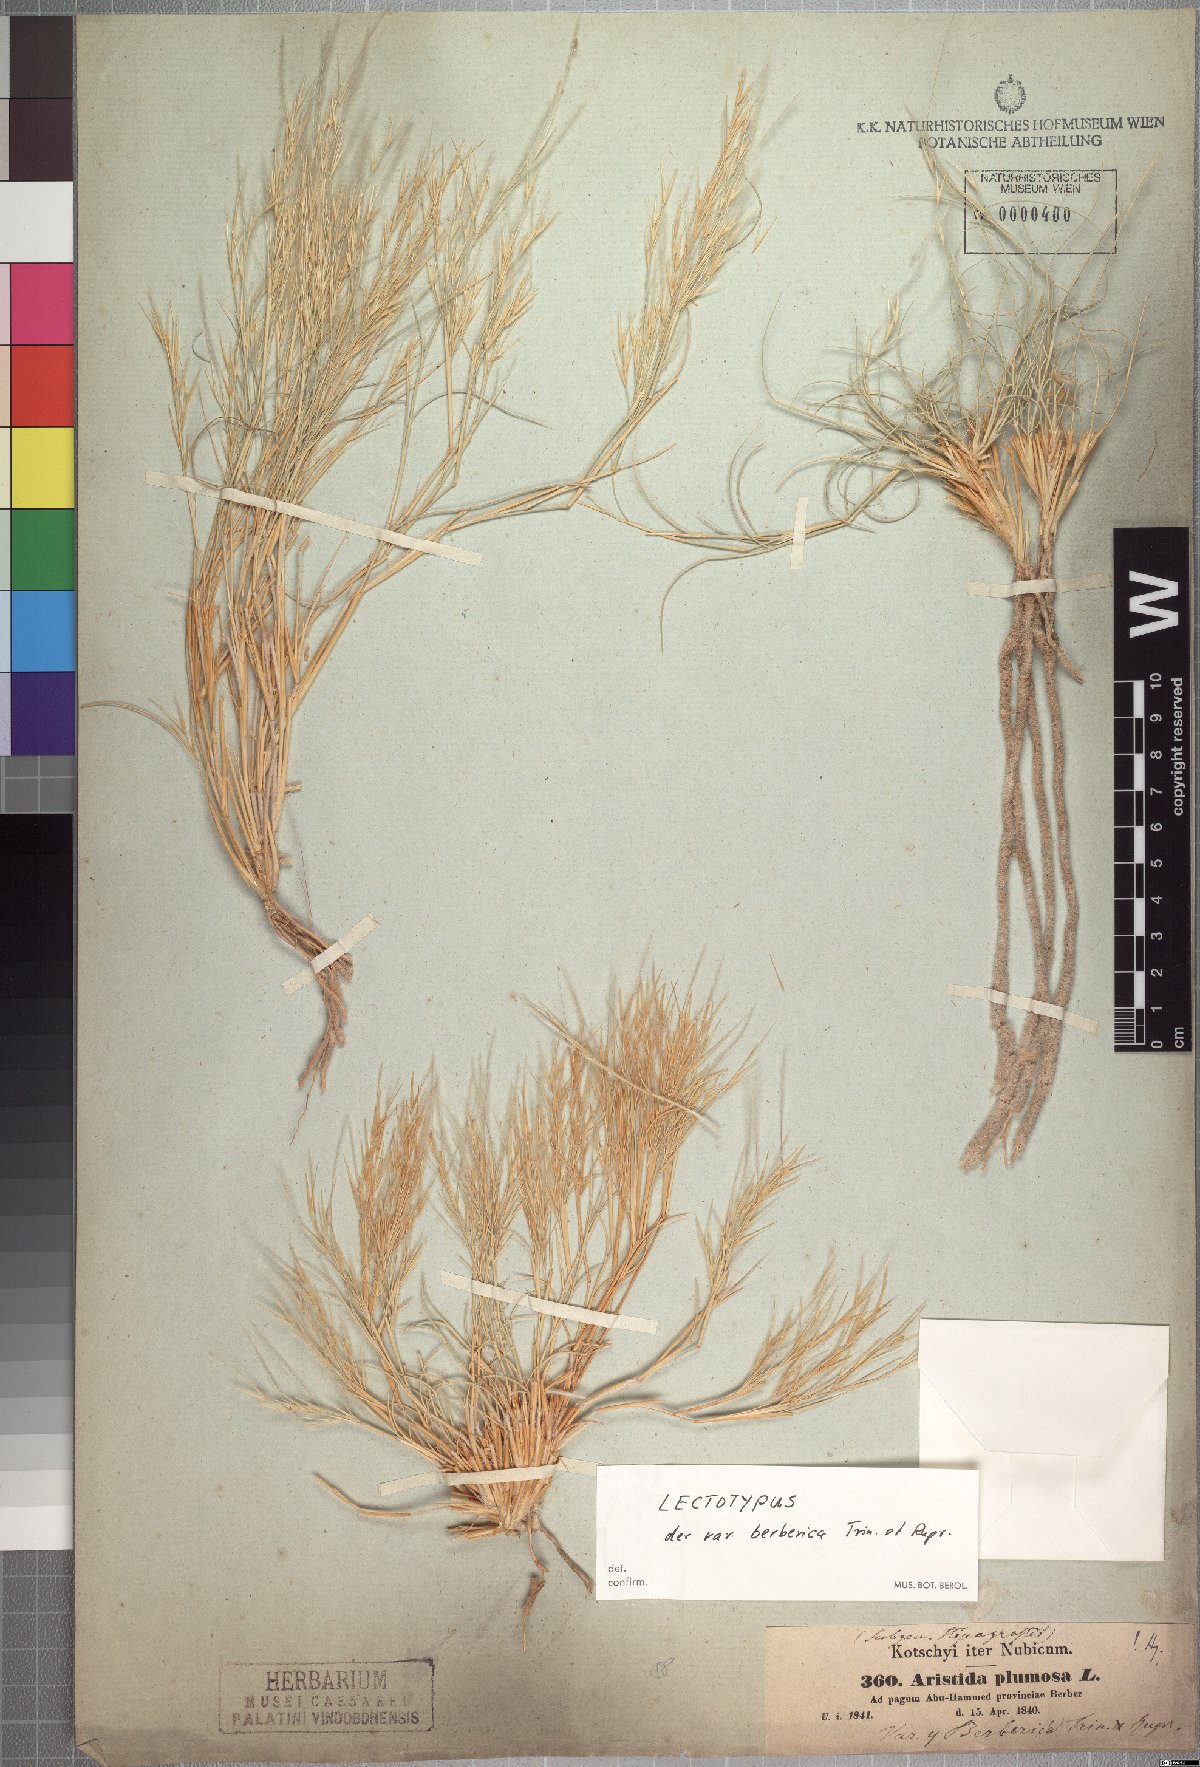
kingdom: Plantae
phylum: Tracheophyta
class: Liliopsida
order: Poales
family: Poaceae
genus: Stipagrostis
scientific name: Stipagrostis plumosa
